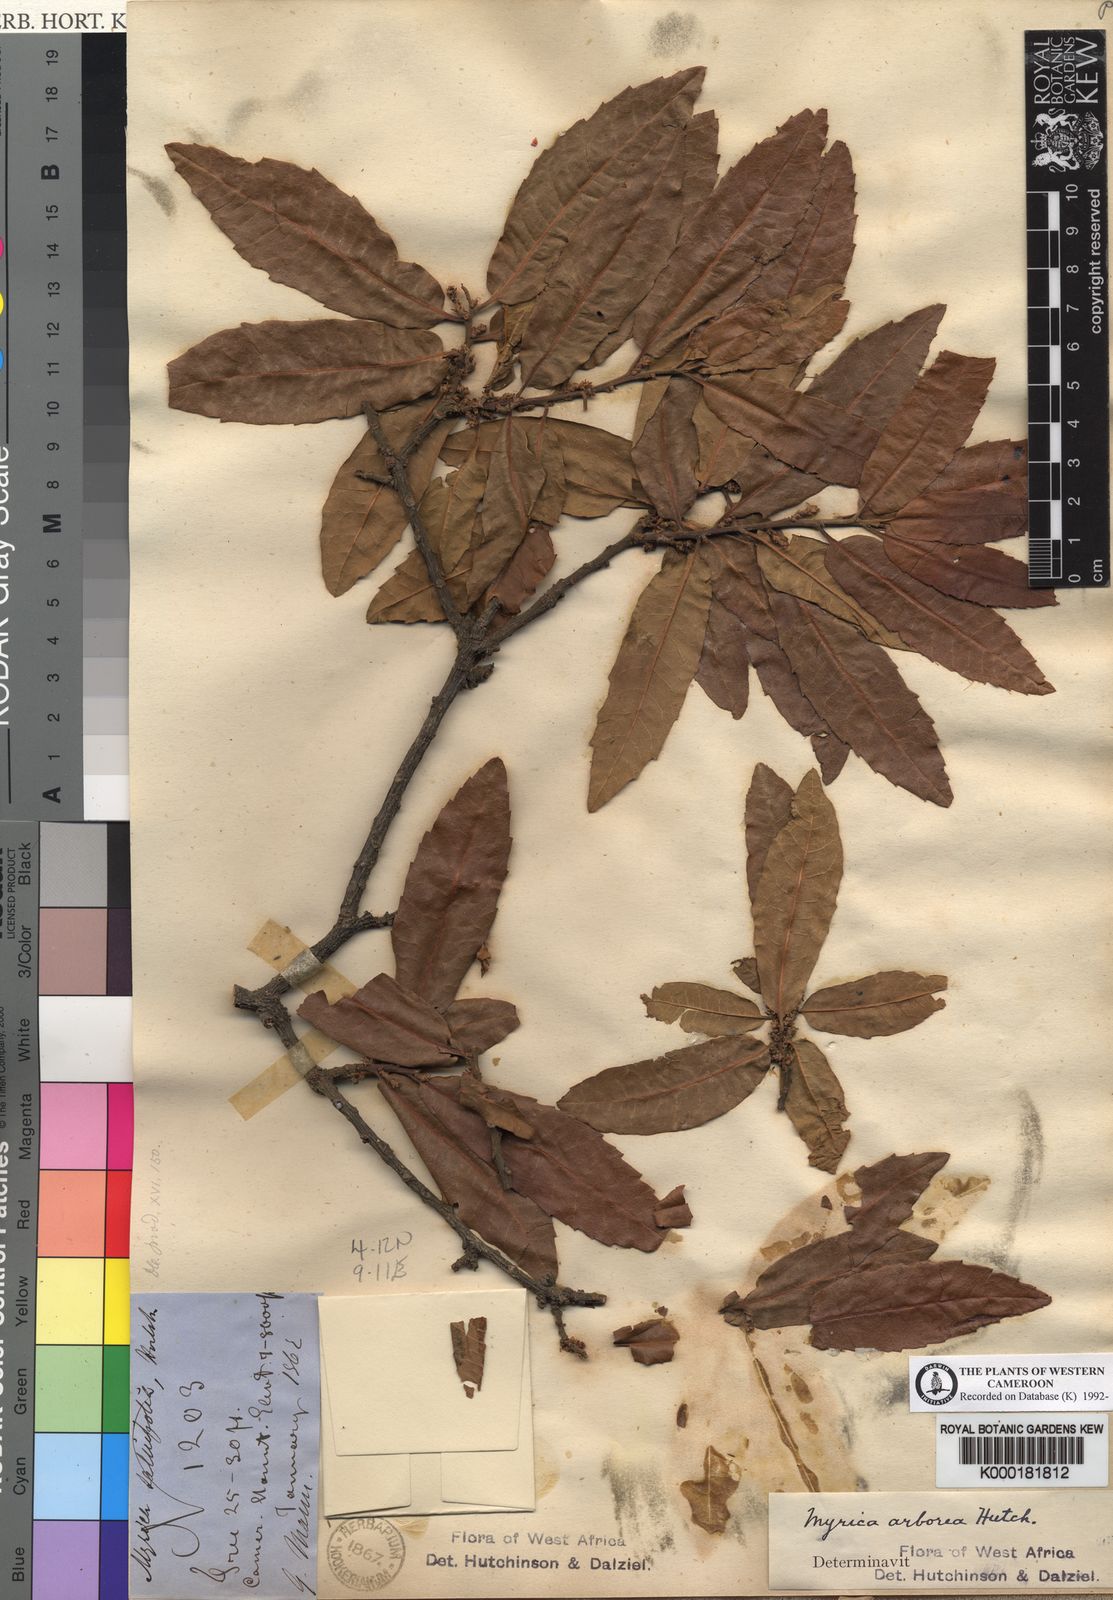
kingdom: Plantae
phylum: Tracheophyta
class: Magnoliopsida
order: Fagales
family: Myricaceae
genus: Morella
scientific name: Morella arborea
